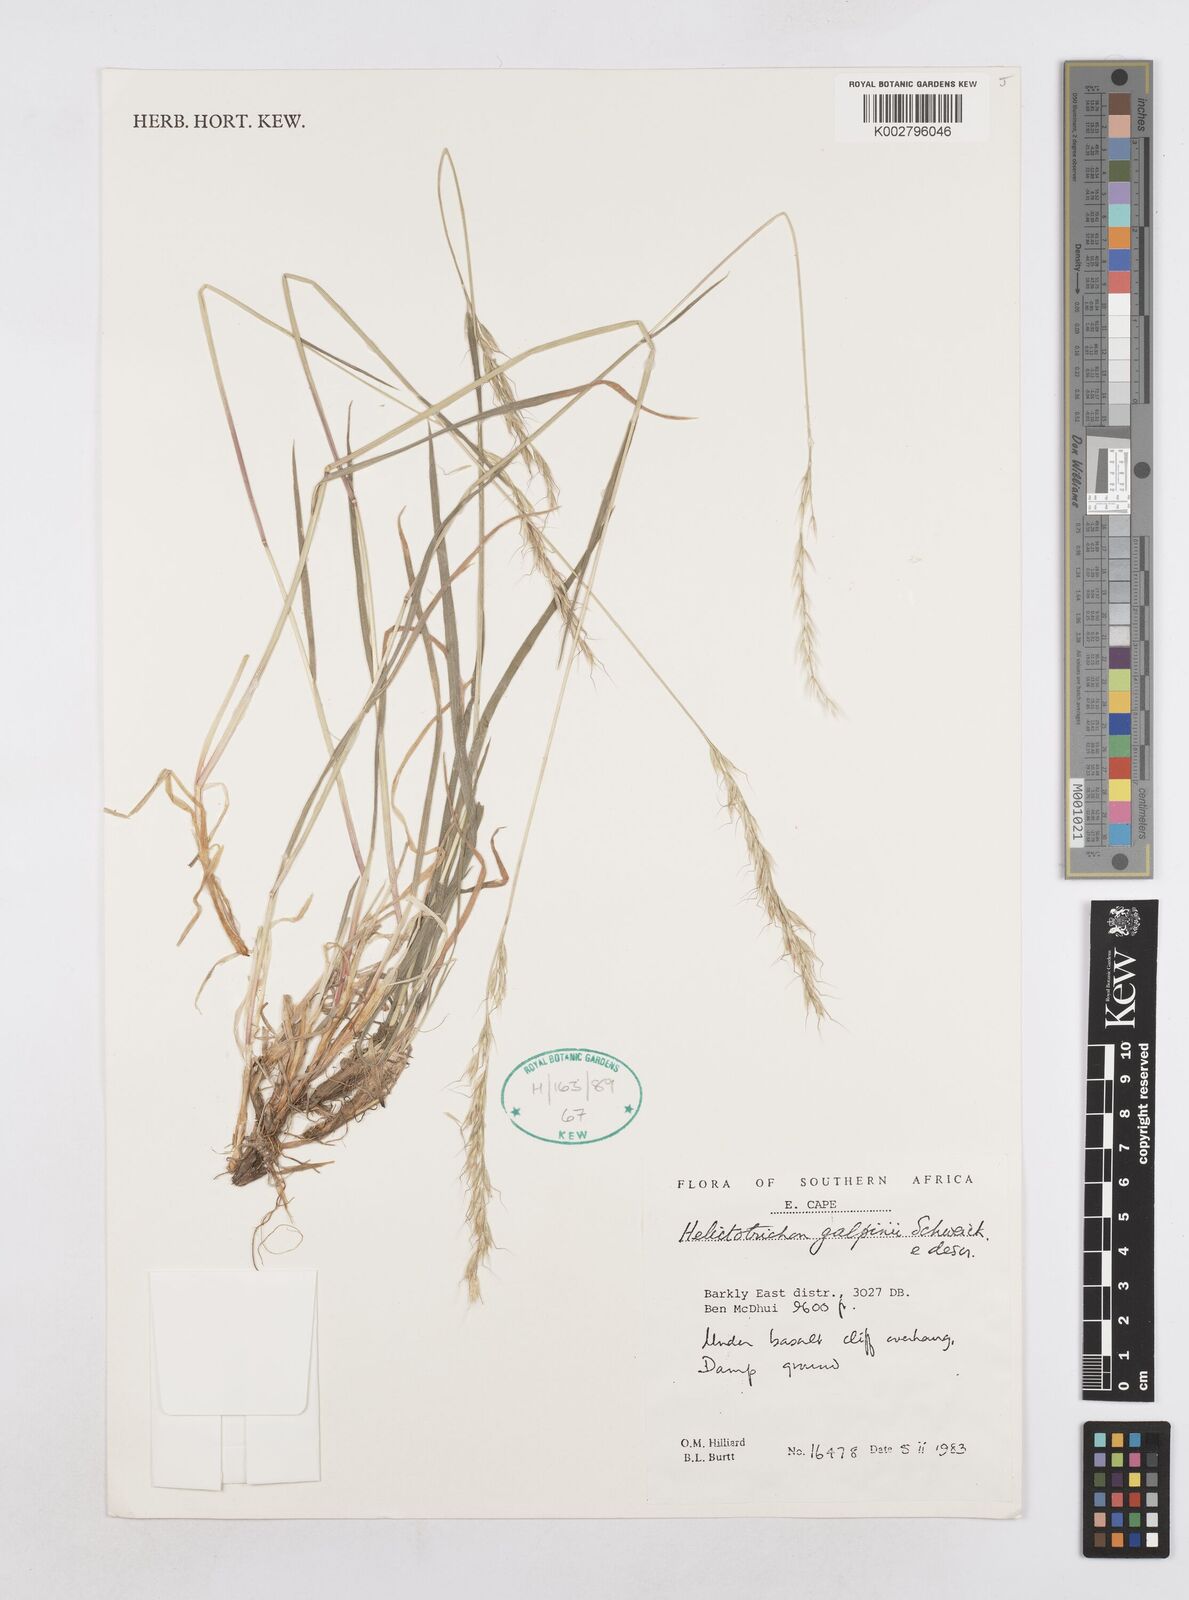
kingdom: Plantae
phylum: Tracheophyta
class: Liliopsida
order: Poales
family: Poaceae
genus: Trisetopsis
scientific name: Trisetopsis galpinii
